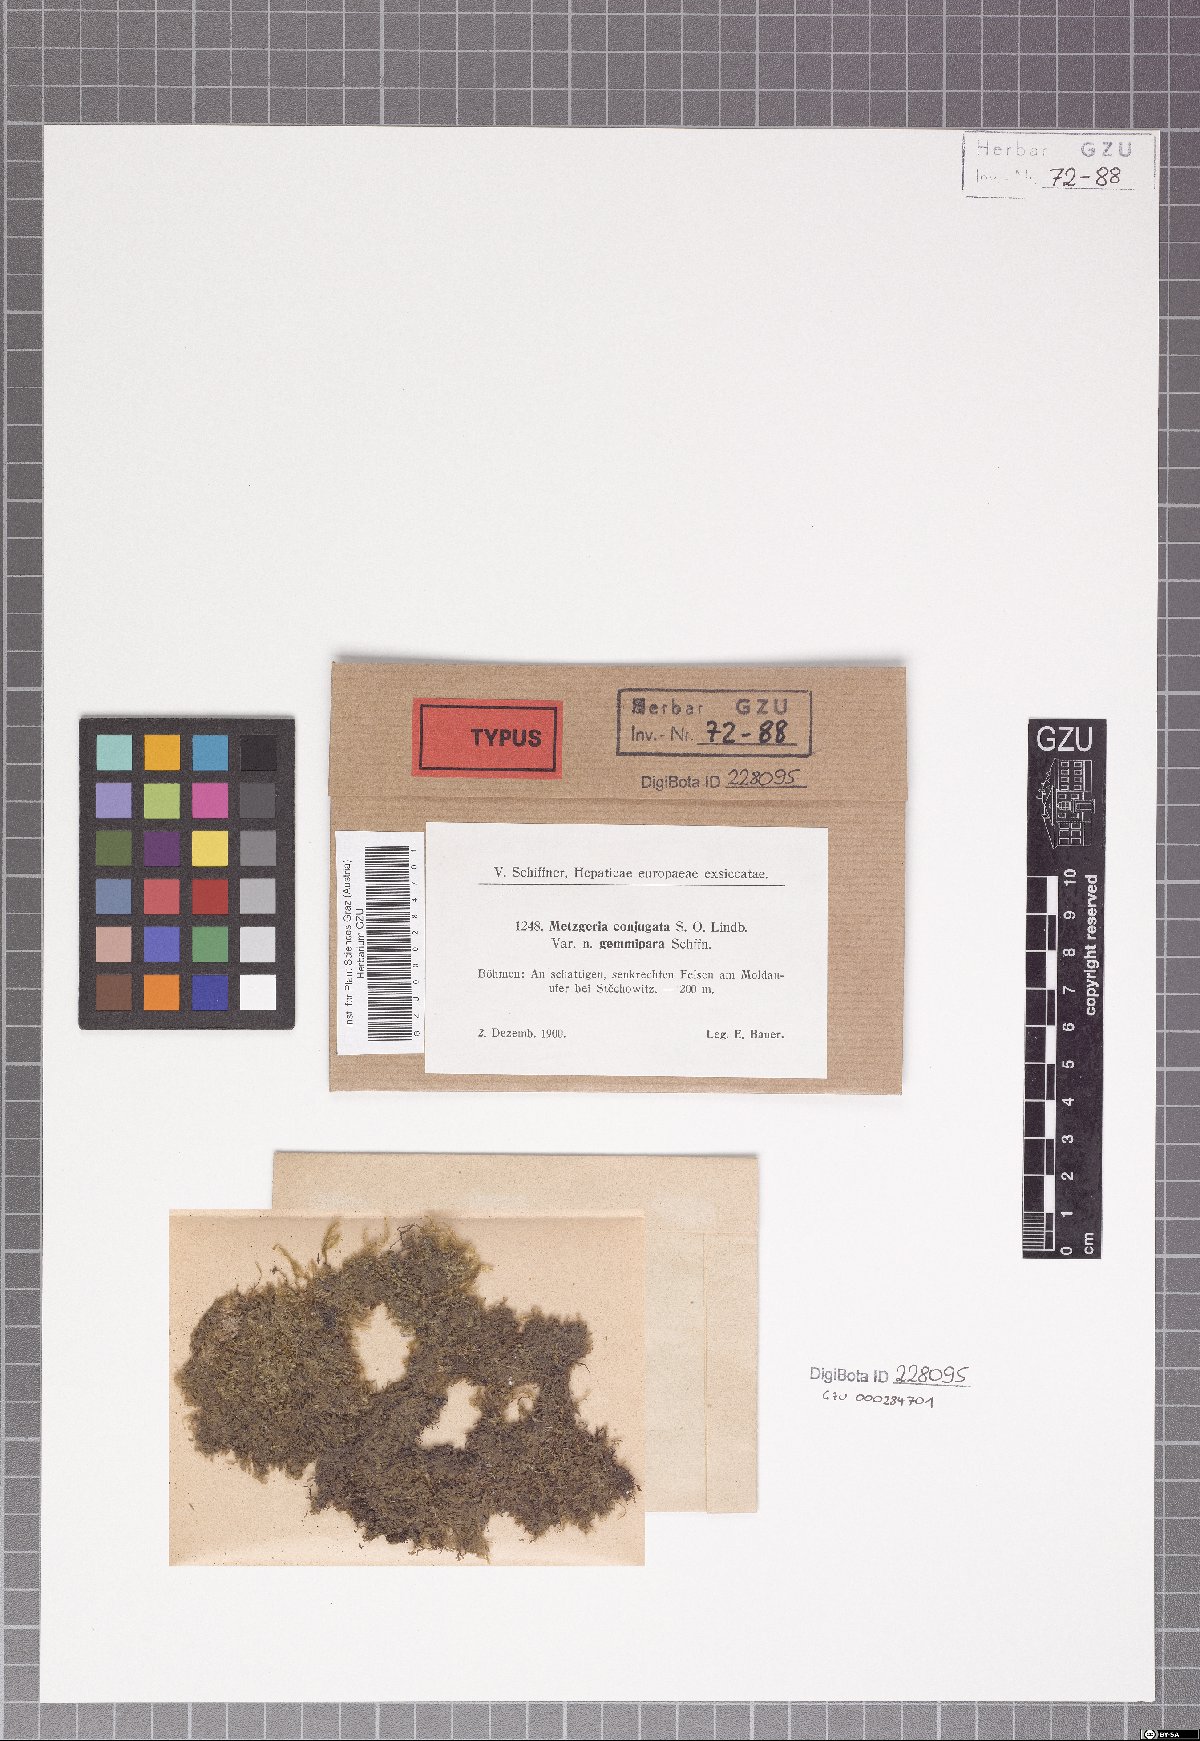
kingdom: Plantae
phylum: Marchantiophyta
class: Jungermanniopsida
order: Metzgeriales
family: Metzgeriaceae
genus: Metzgeria
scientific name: Metzgeria conjugata
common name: Rock veilwort
